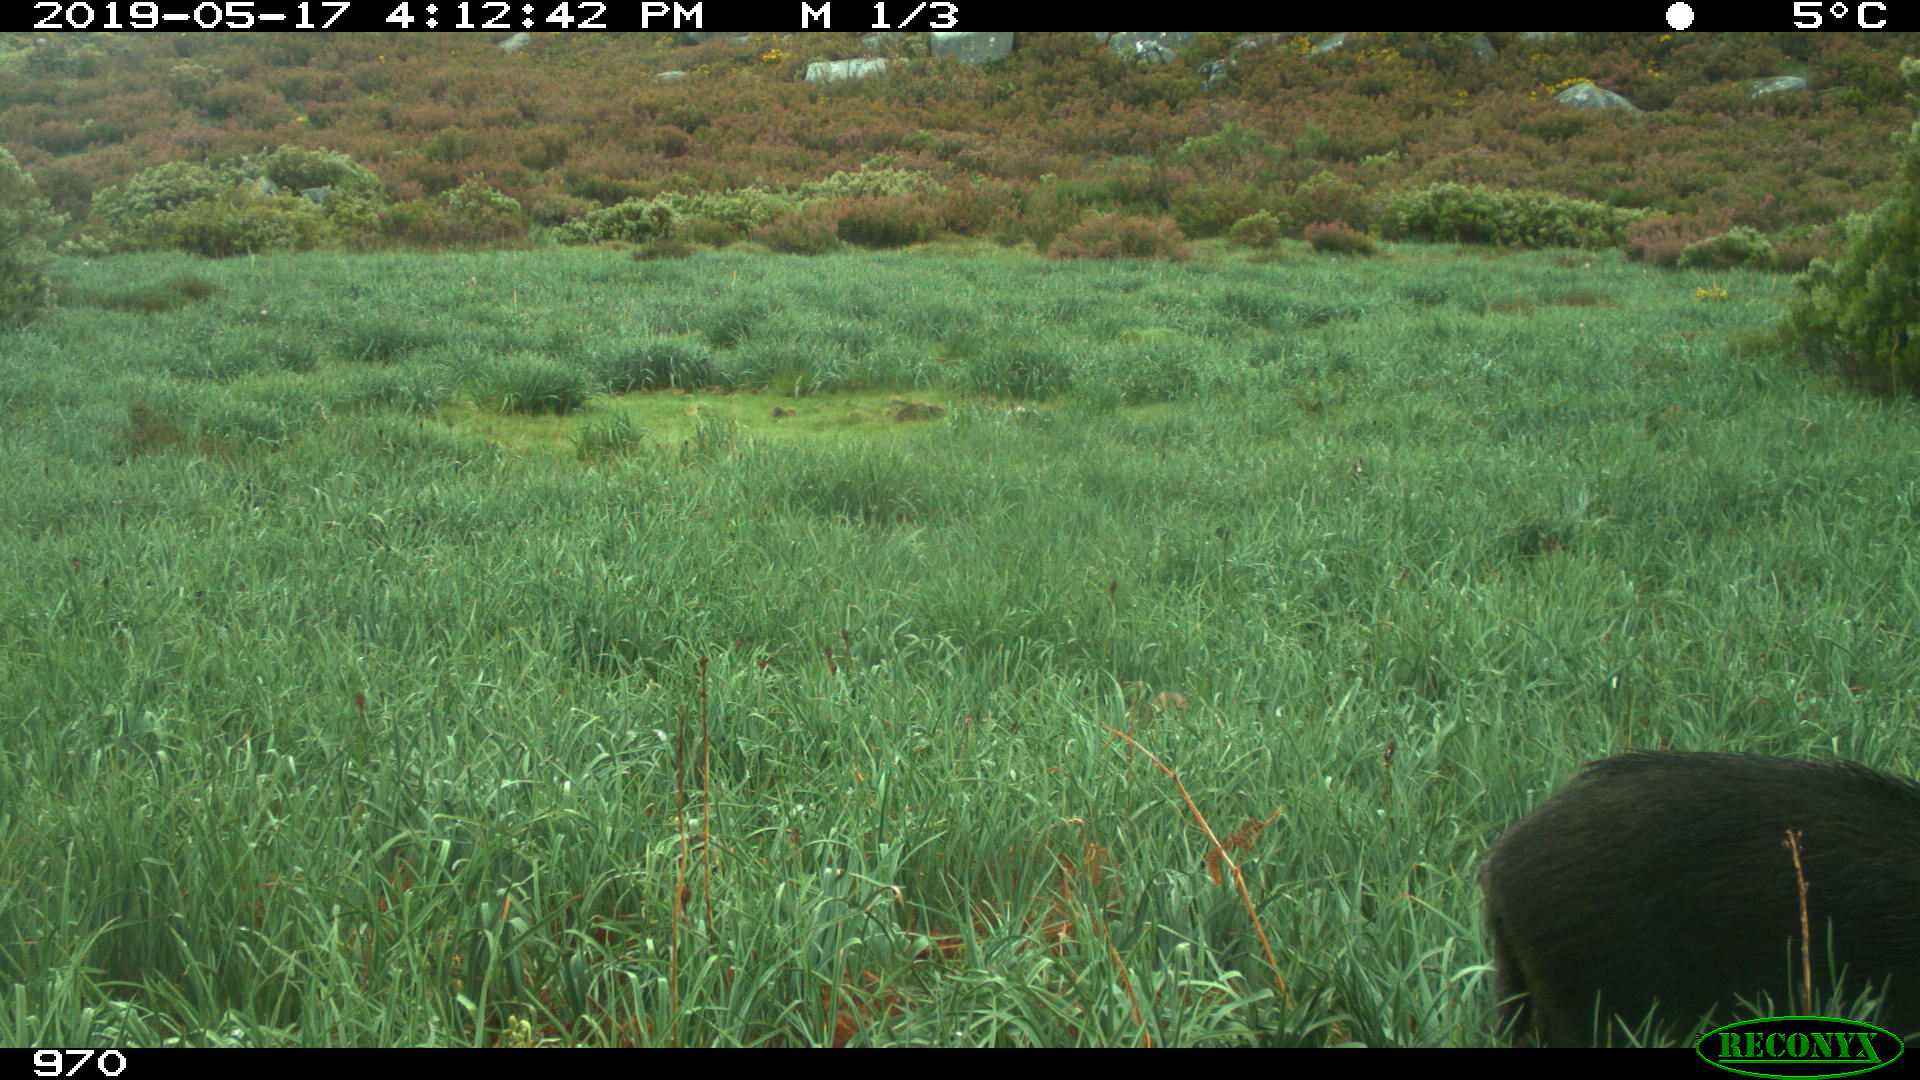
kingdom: Animalia
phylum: Chordata
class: Mammalia
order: Artiodactyla
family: Suidae
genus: Sus
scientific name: Sus scrofa
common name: Wild boar
